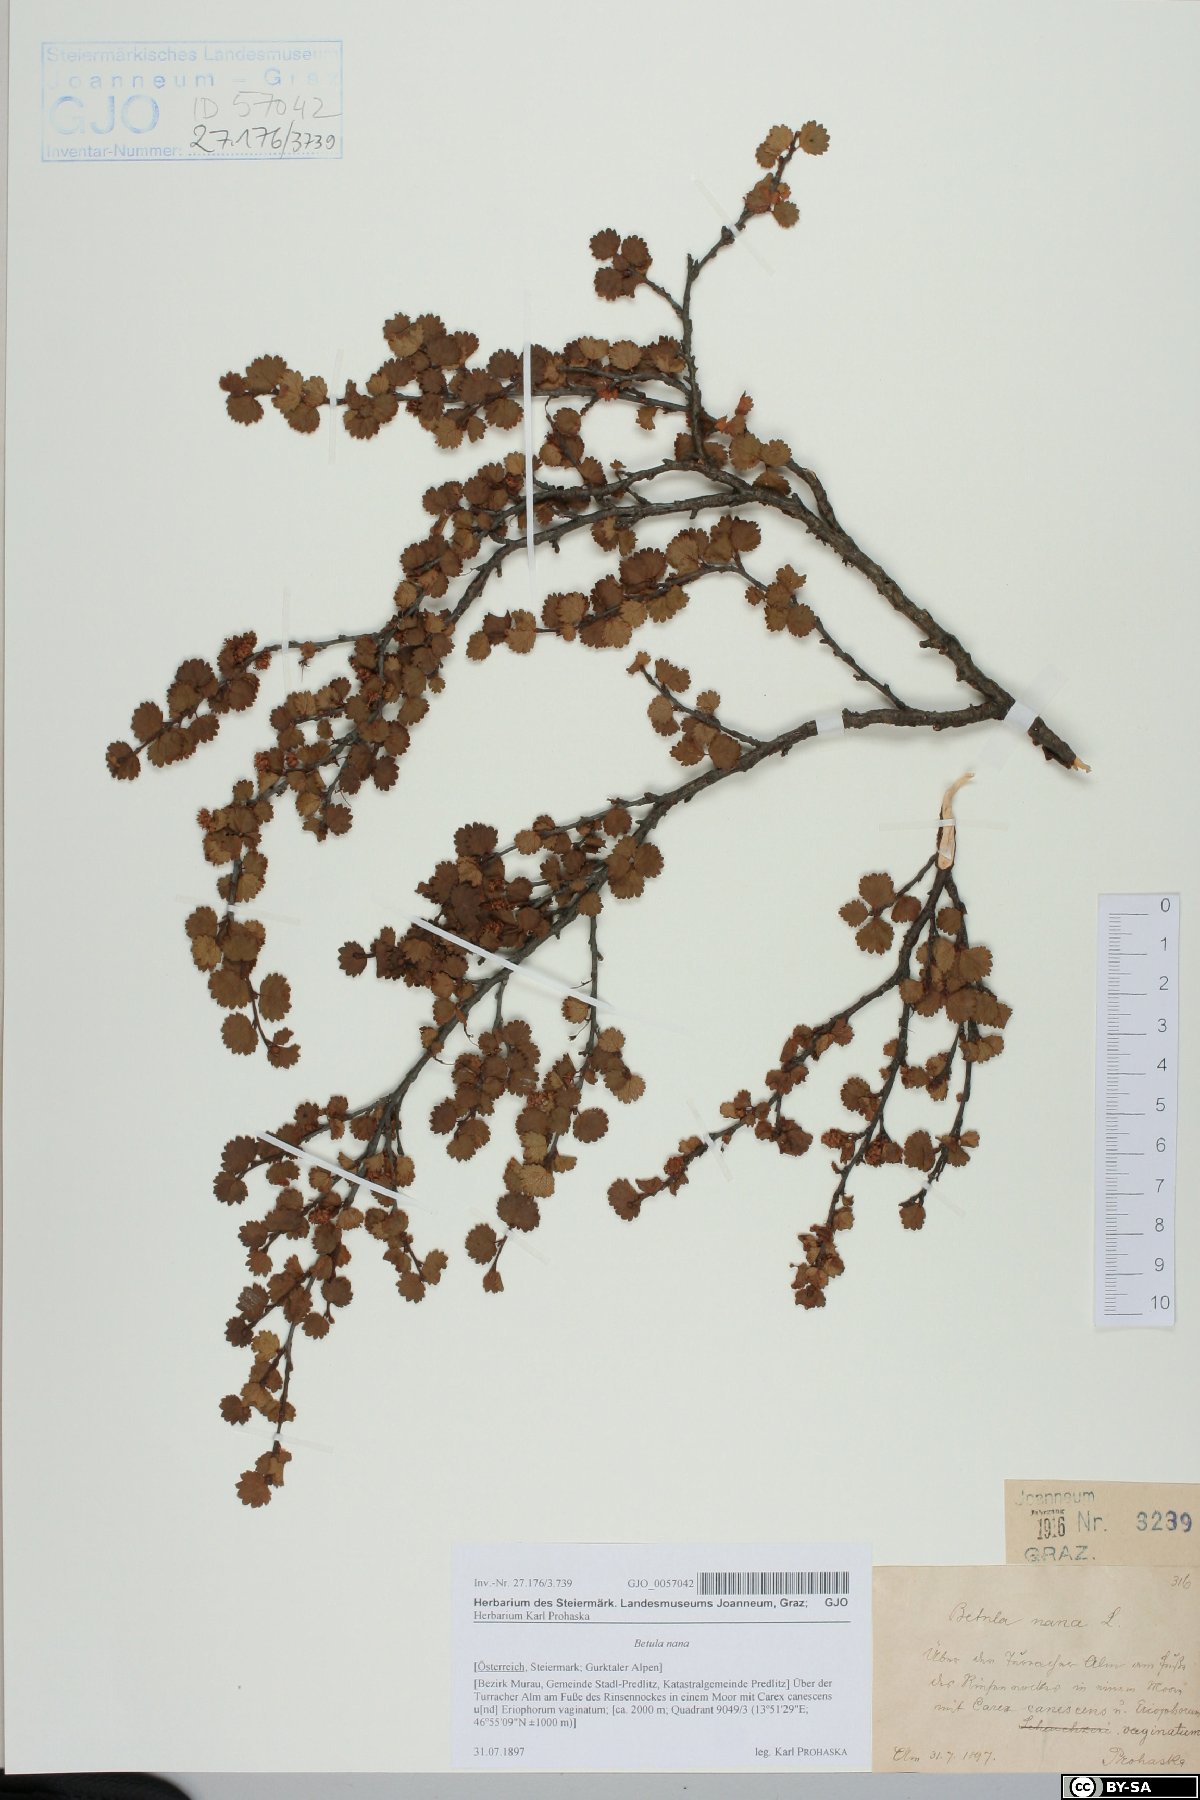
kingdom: Plantae
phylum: Tracheophyta
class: Magnoliopsida
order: Fagales
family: Betulaceae
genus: Betula
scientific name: Betula nana
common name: Arctic dwarf birch
